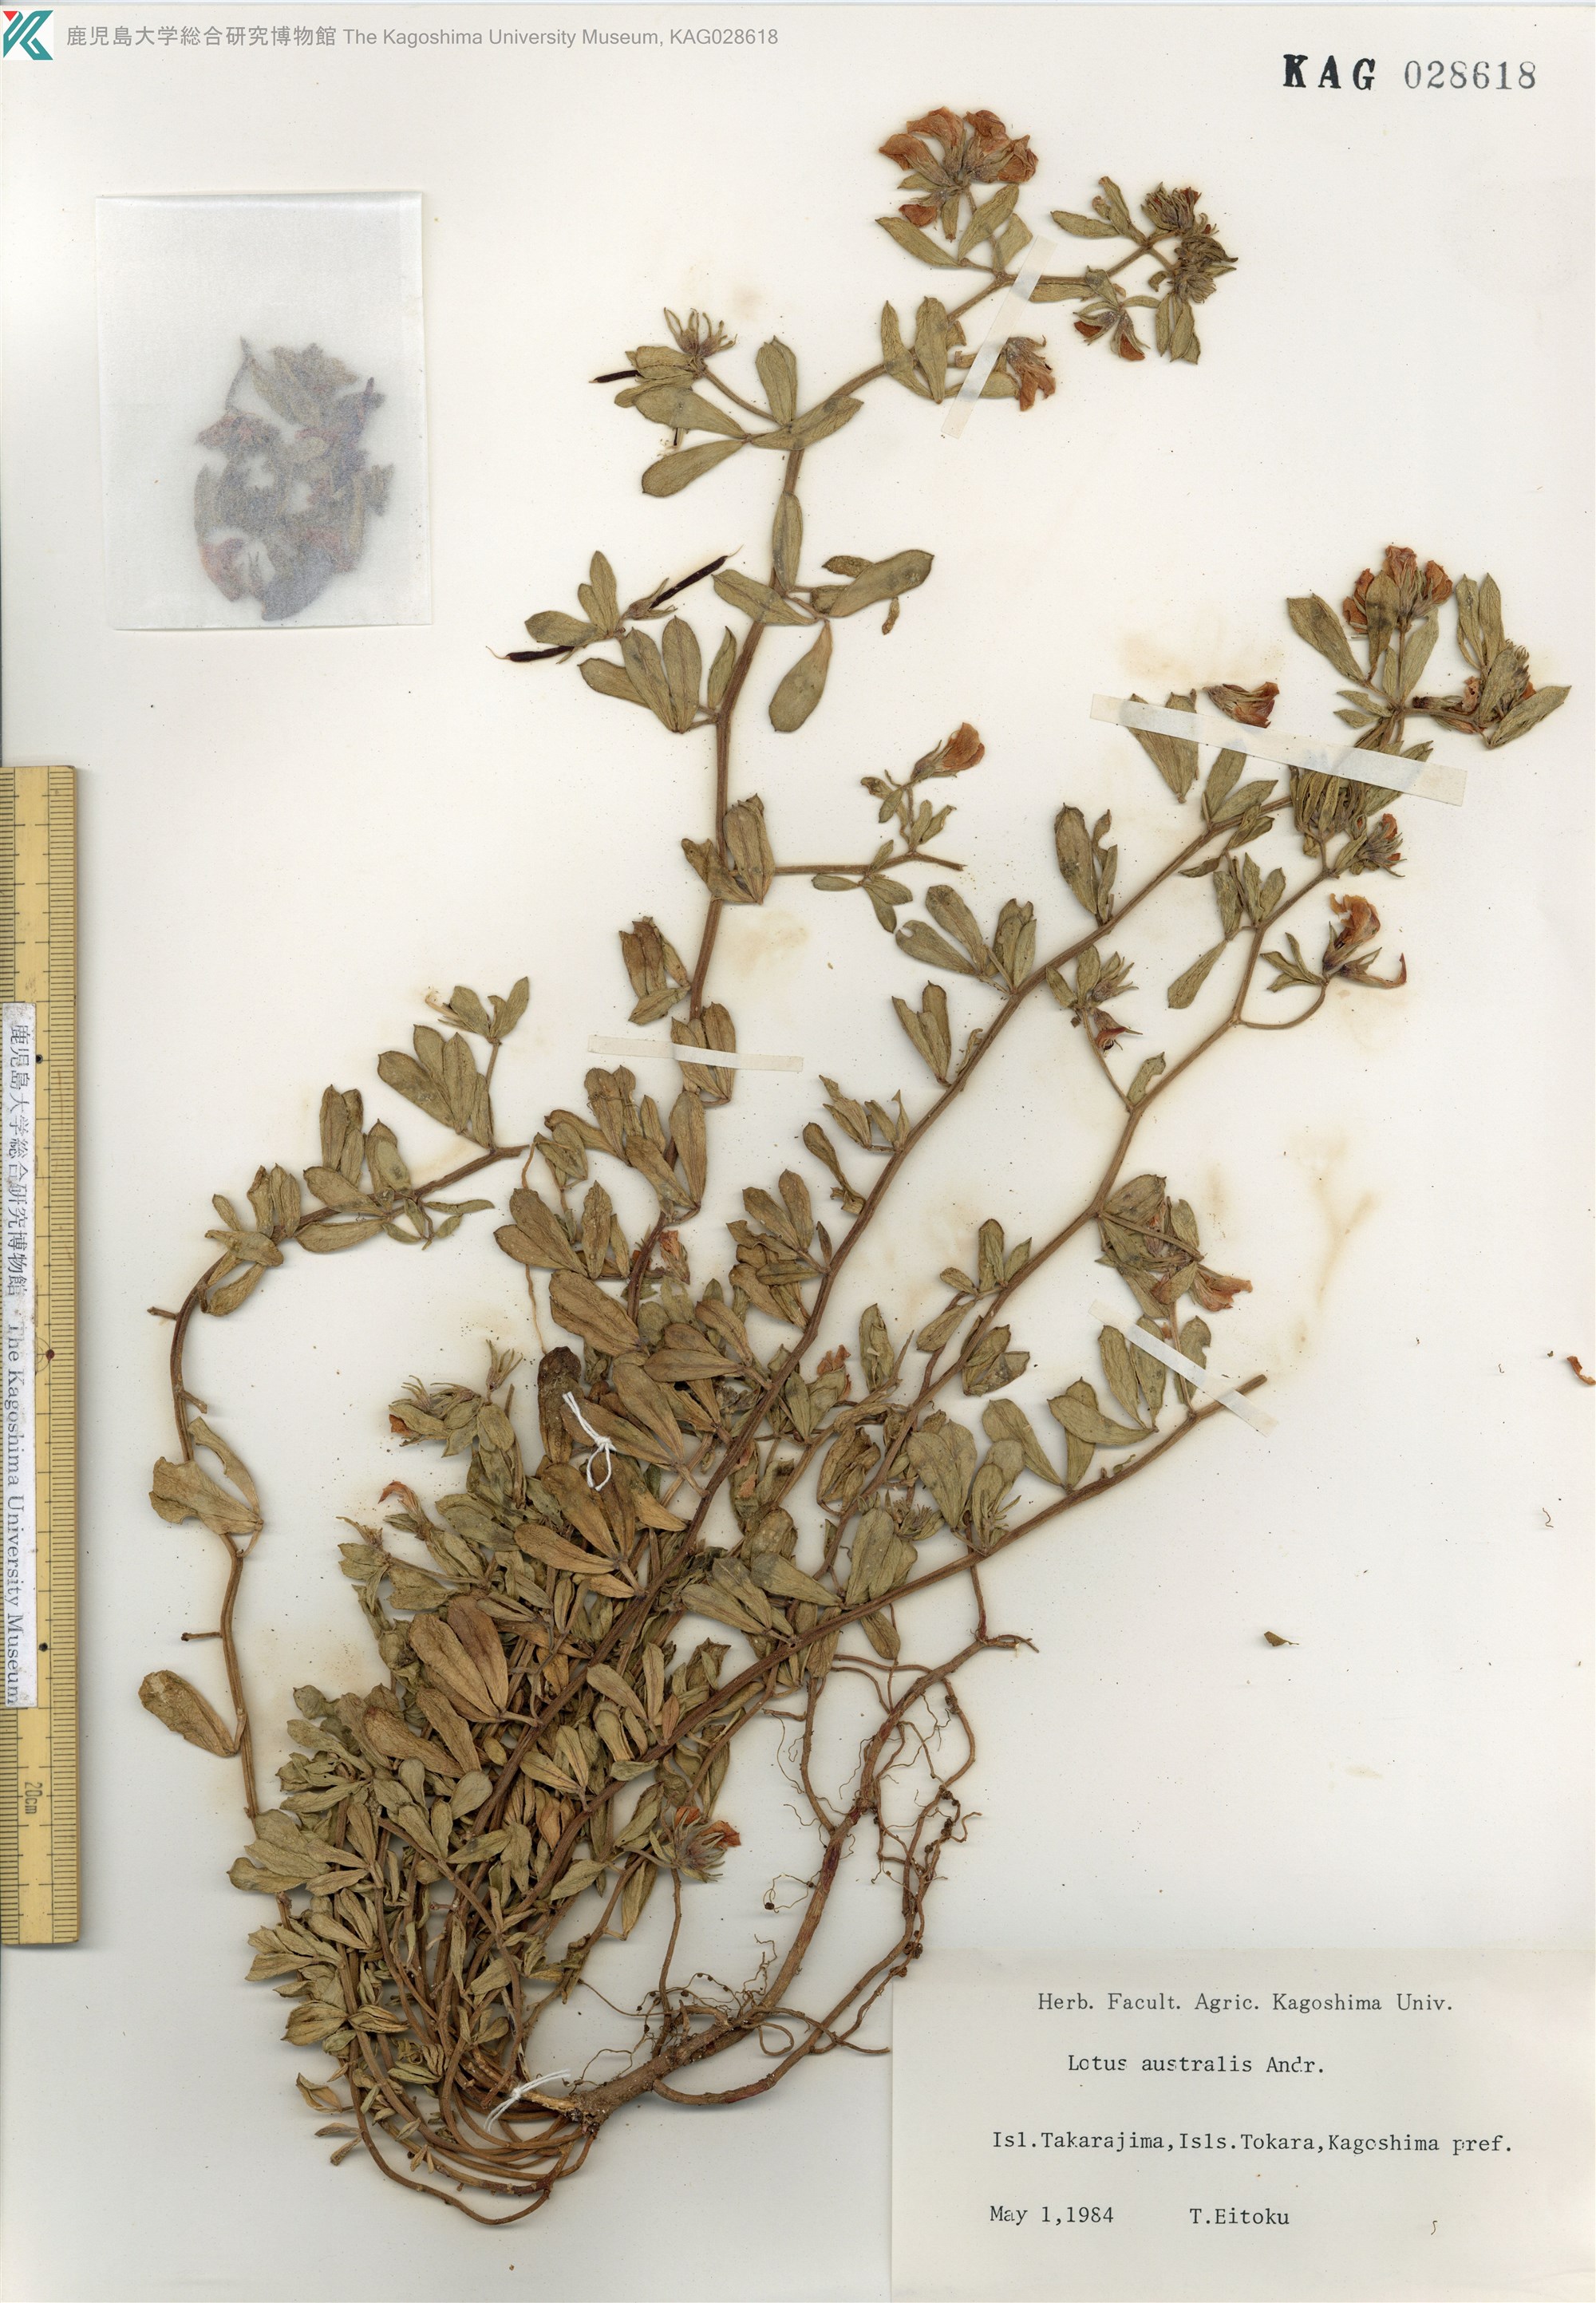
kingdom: Plantae
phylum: Tracheophyta
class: Magnoliopsida
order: Fabales
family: Fabaceae
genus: Lotus
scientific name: Lotus taitungensis
